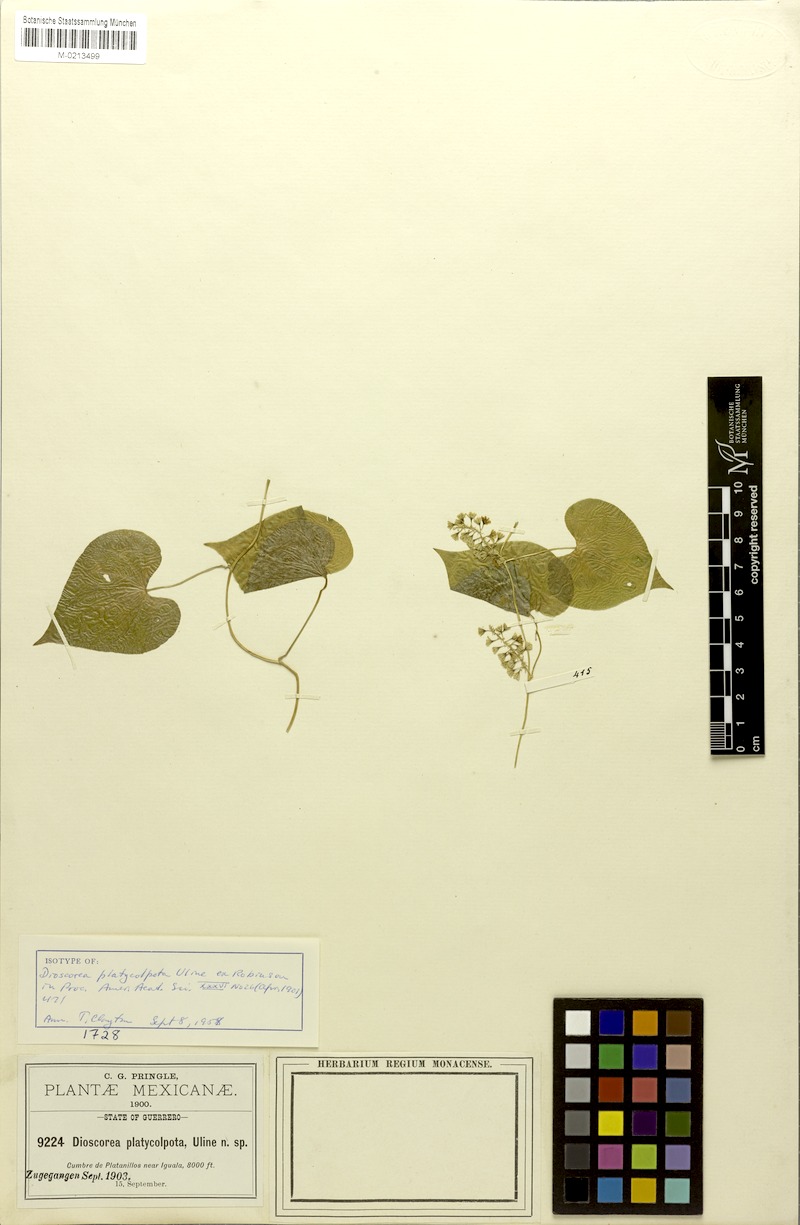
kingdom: Plantae
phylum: Tracheophyta
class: Liliopsida
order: Dioscoreales
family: Dioscoreaceae
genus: Dioscorea
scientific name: Dioscorea platycolpota
